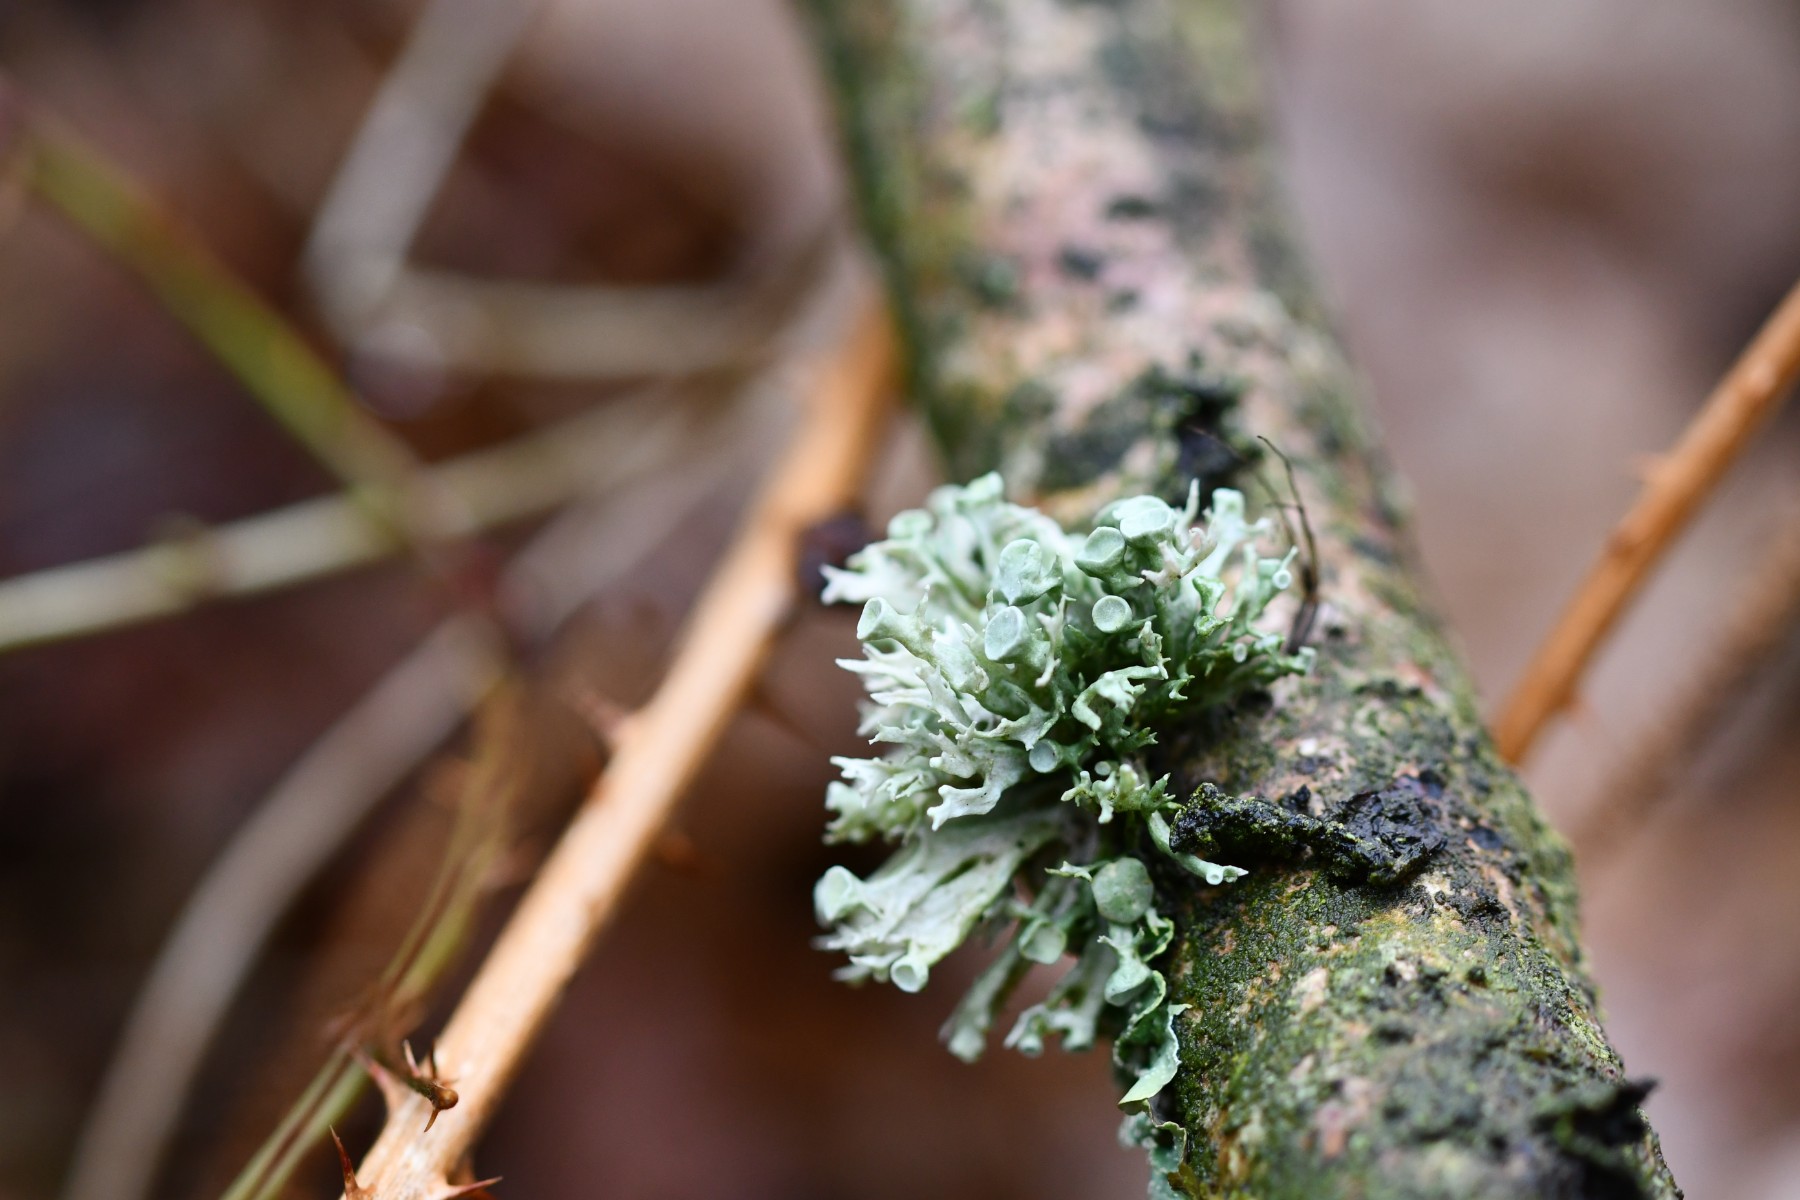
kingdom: Fungi
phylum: Ascomycota
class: Lecanoromycetes
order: Lecanorales
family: Ramalinaceae
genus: Ramalina
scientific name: Ramalina fastigiata
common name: tue-grenlav
